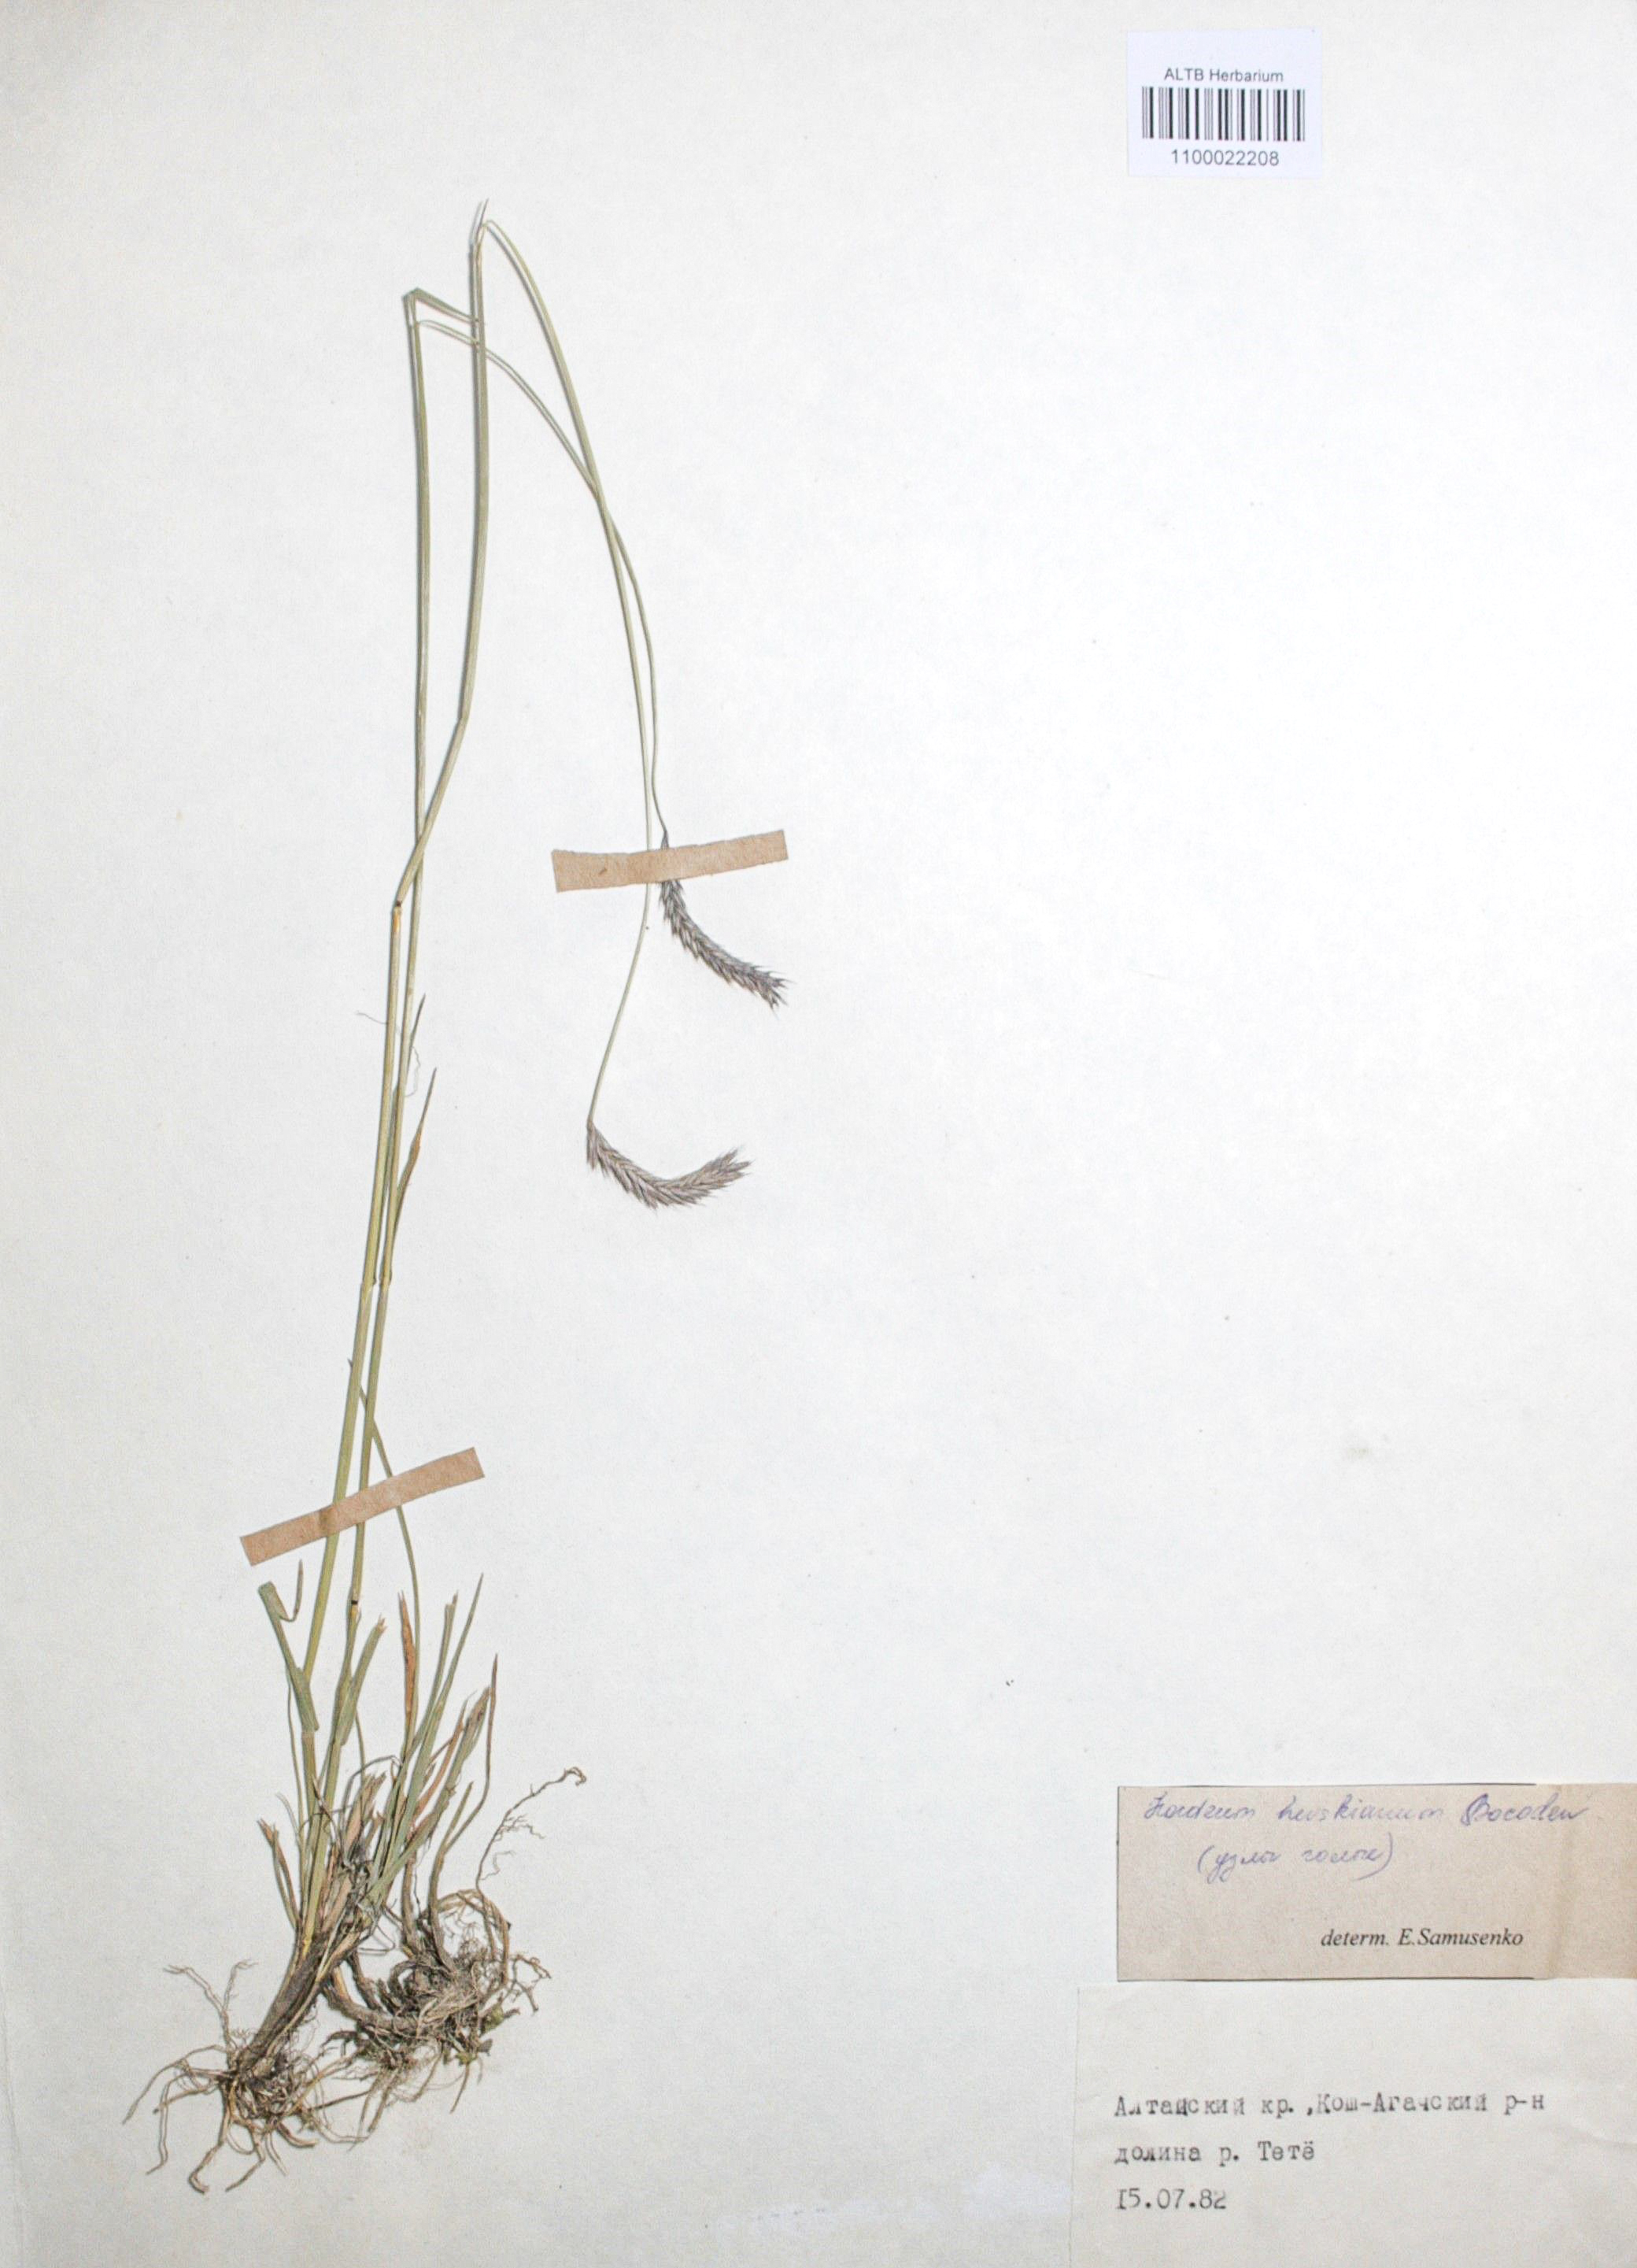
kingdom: Plantae
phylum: Tracheophyta
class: Liliopsida
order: Poales
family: Poaceae
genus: Hordeum
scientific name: Hordeum brevisubulatum
